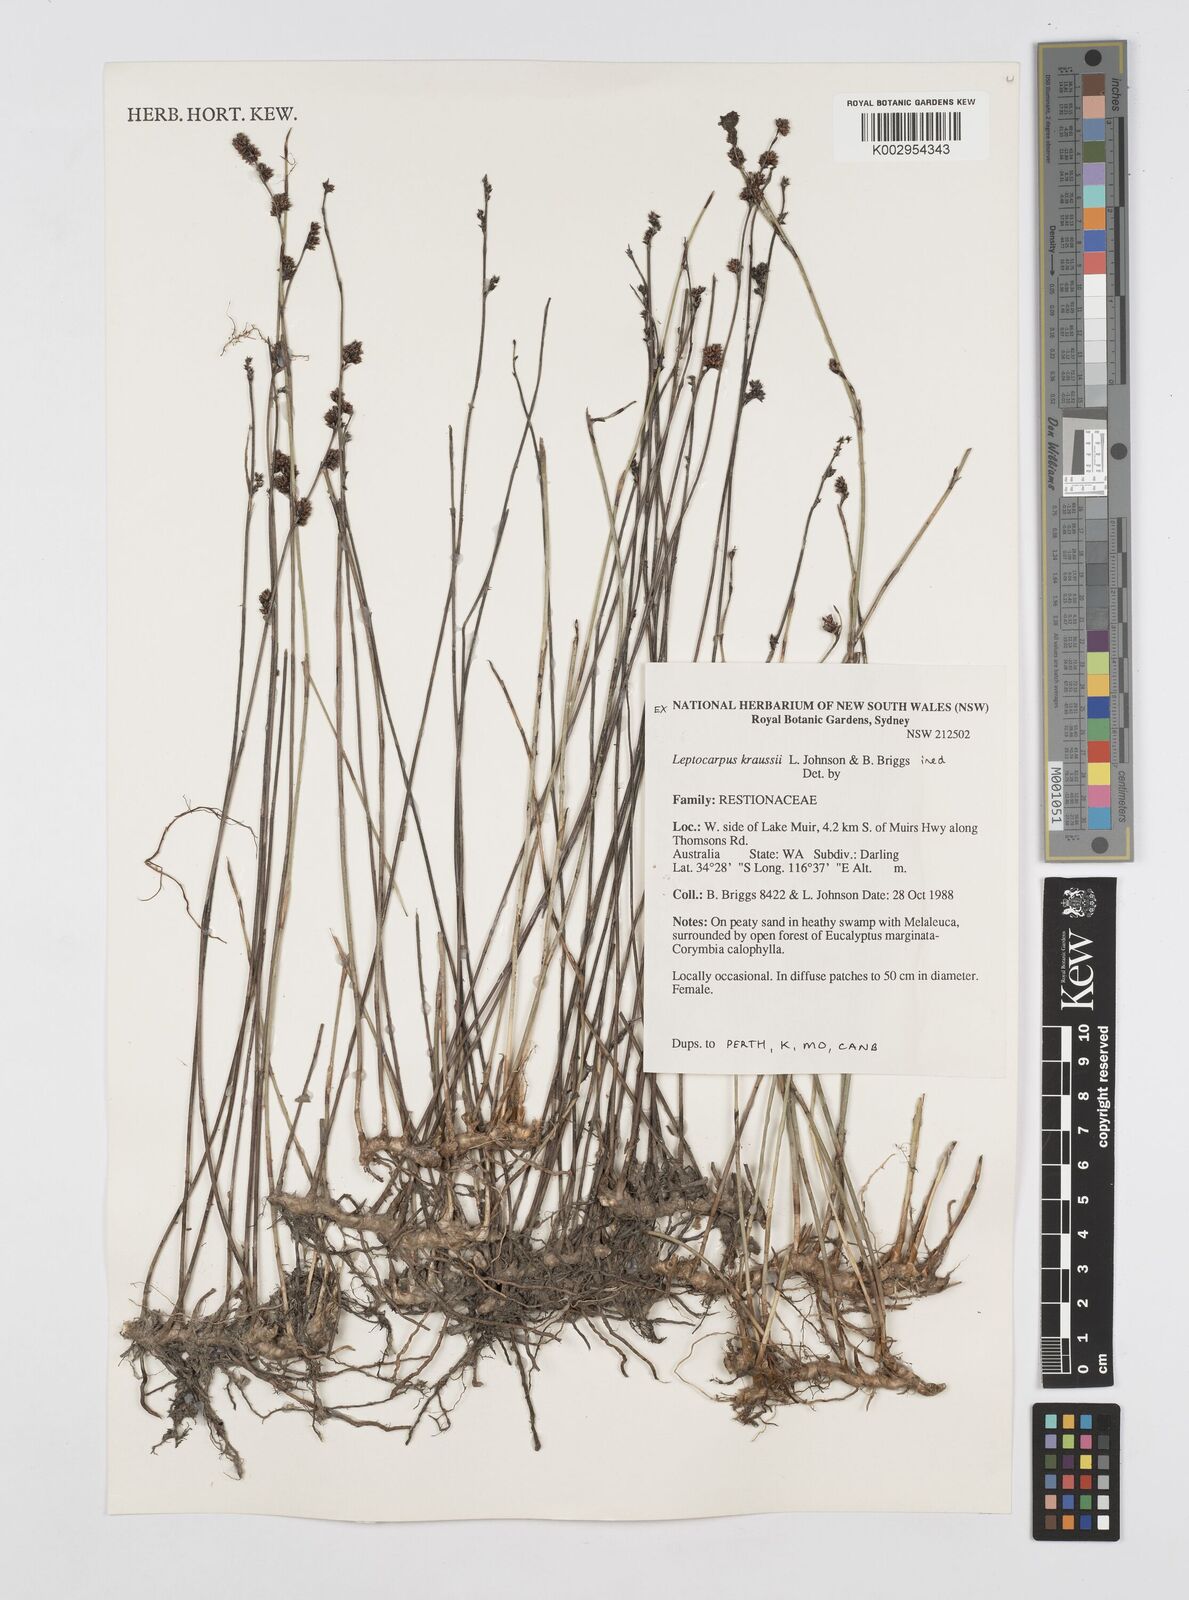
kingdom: Plantae
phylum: Tracheophyta
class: Liliopsida
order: Poales
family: Restionaceae
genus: Leptocarpus
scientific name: Leptocarpus kraussii
